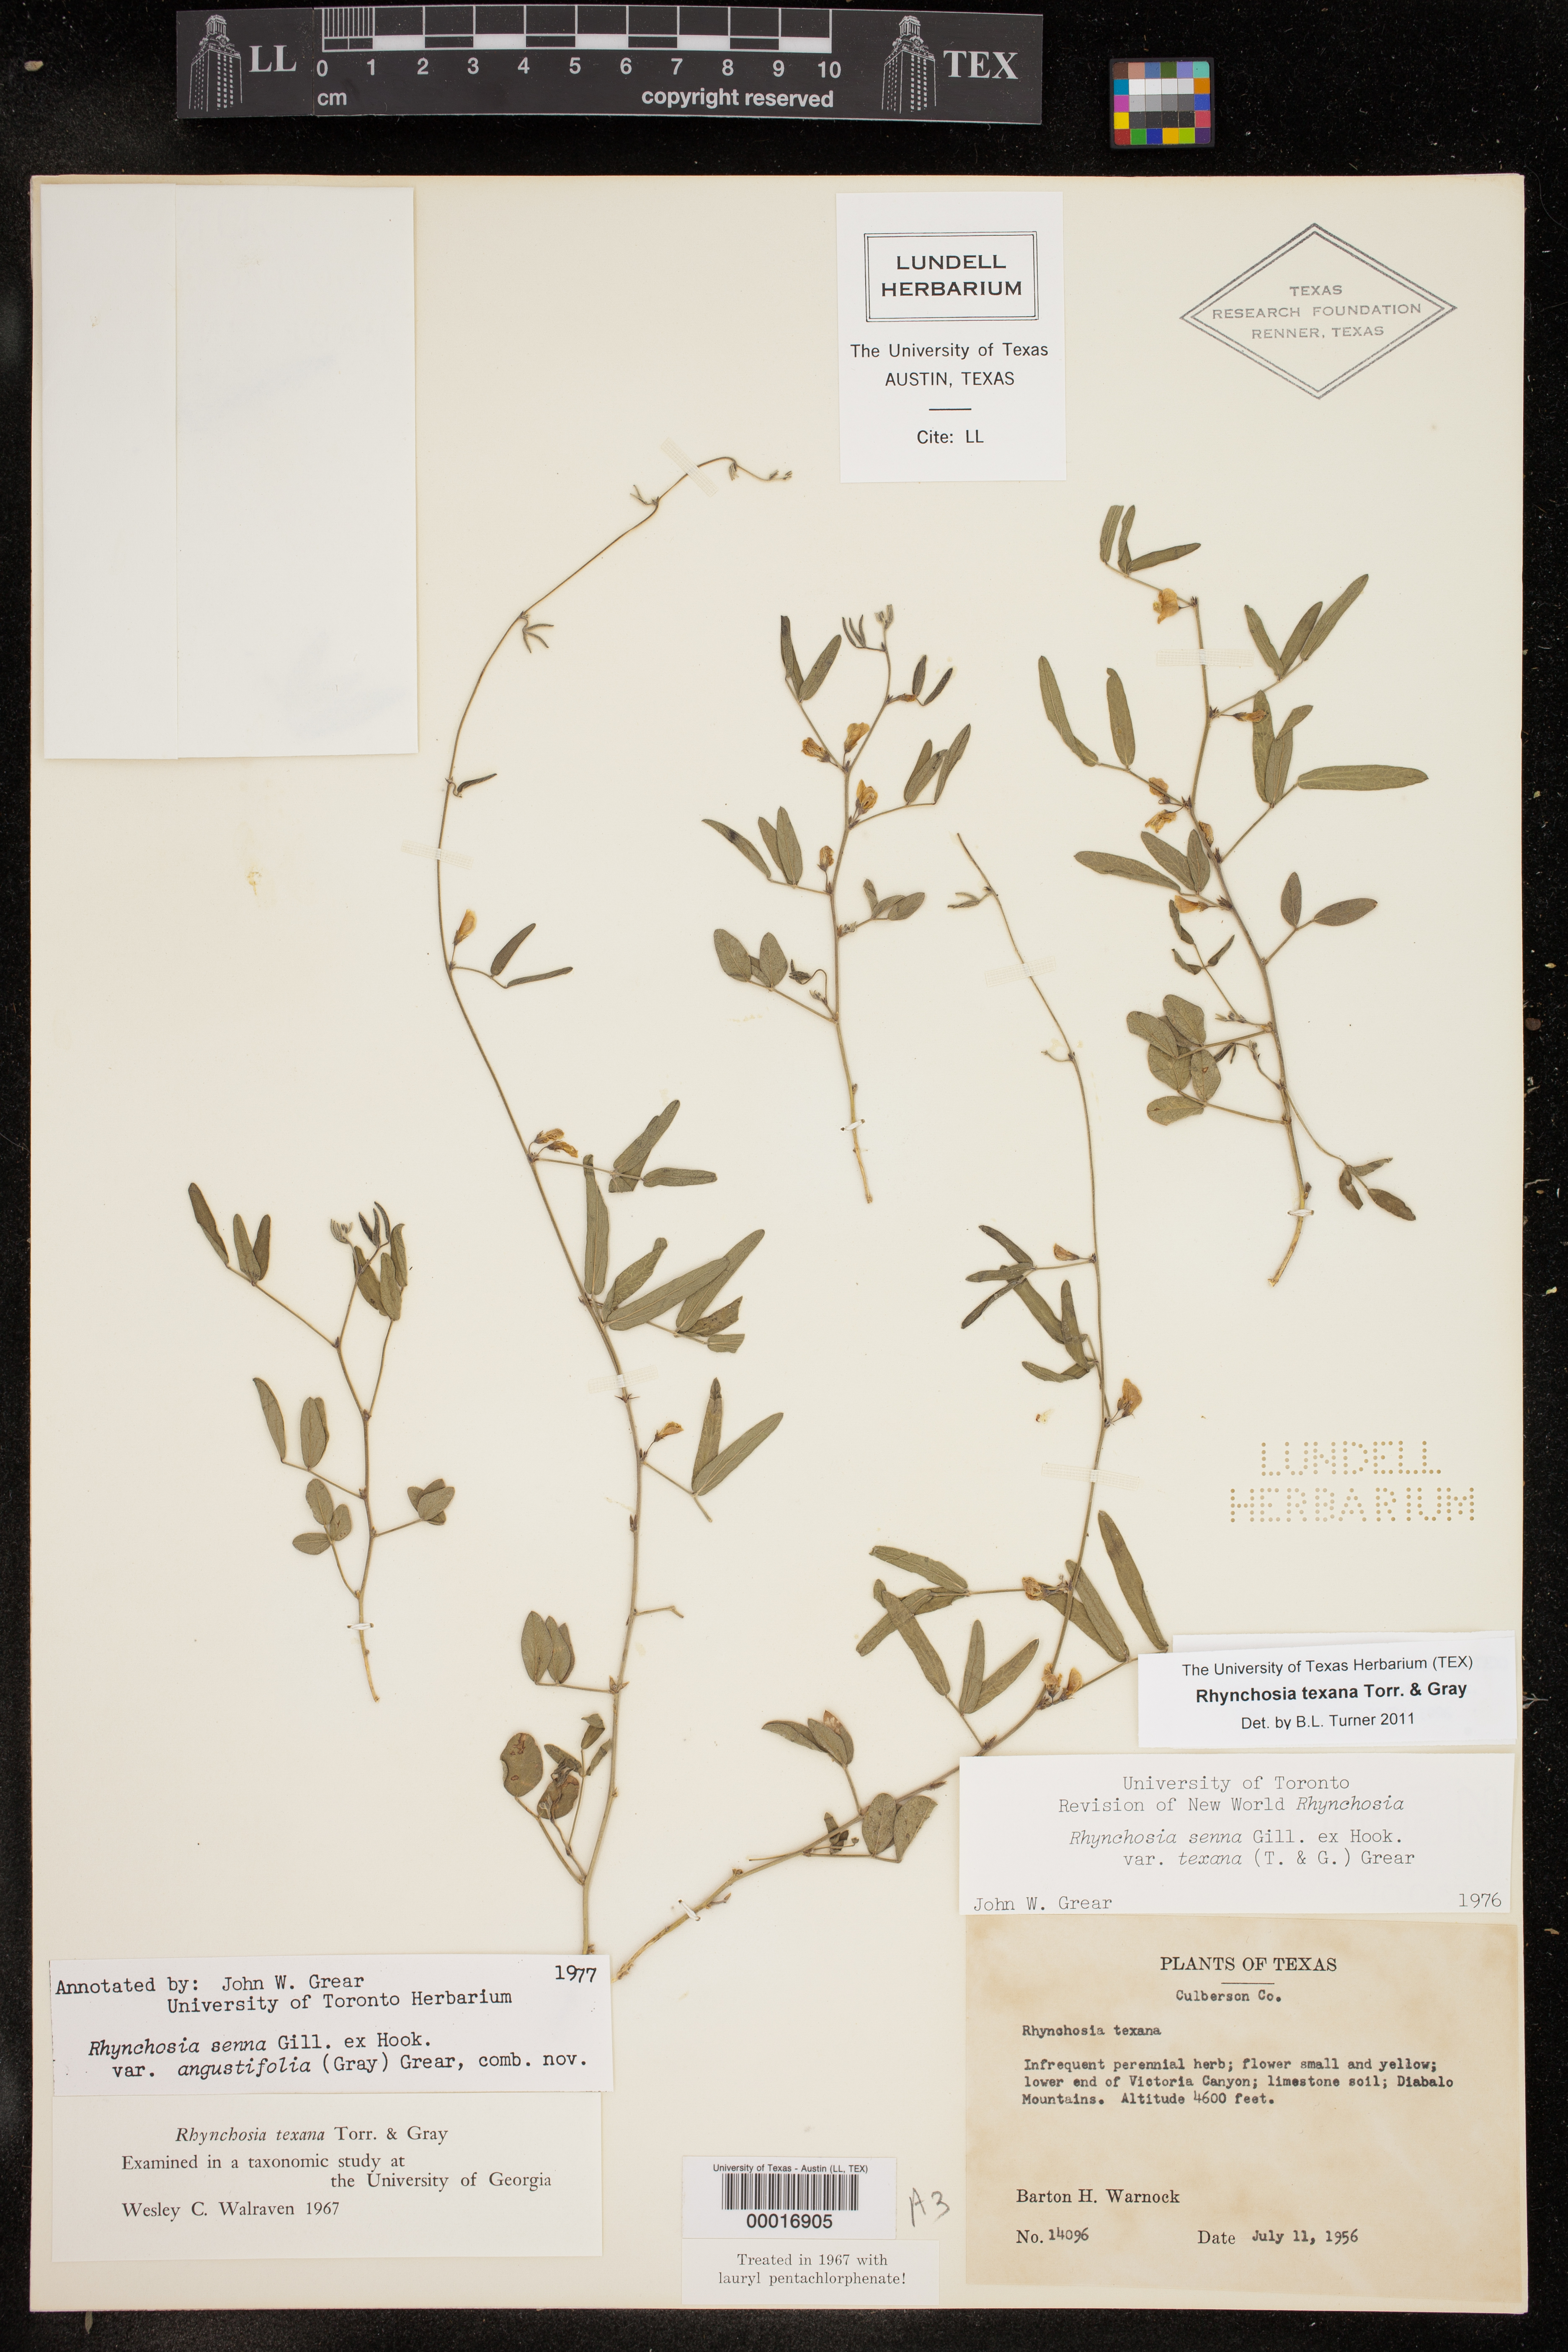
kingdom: Plantae
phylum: Tracheophyta
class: Magnoliopsida
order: Fabales
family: Fabaceae
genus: Rhynchosia
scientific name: Rhynchosia senna
